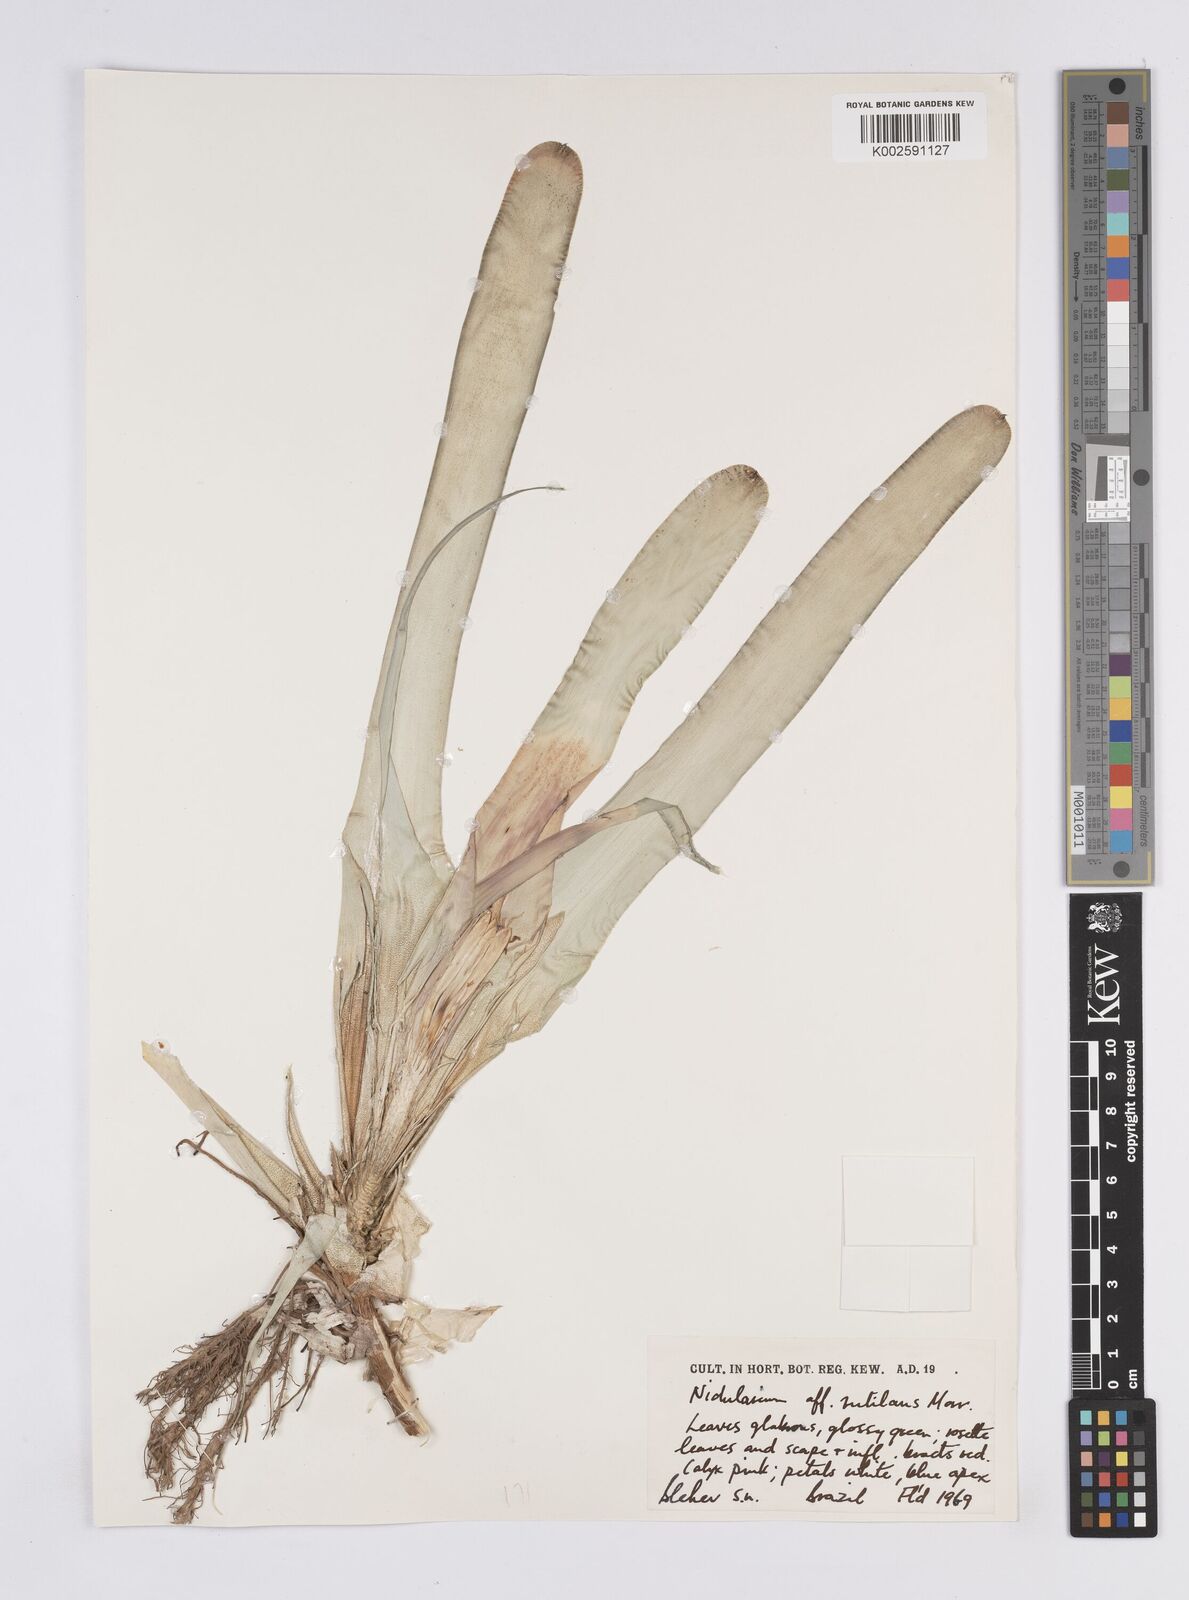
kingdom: Plantae
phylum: Tracheophyta
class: Liliopsida
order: Poales
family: Bromeliaceae
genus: Nidularium
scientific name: Nidularium rutilans
